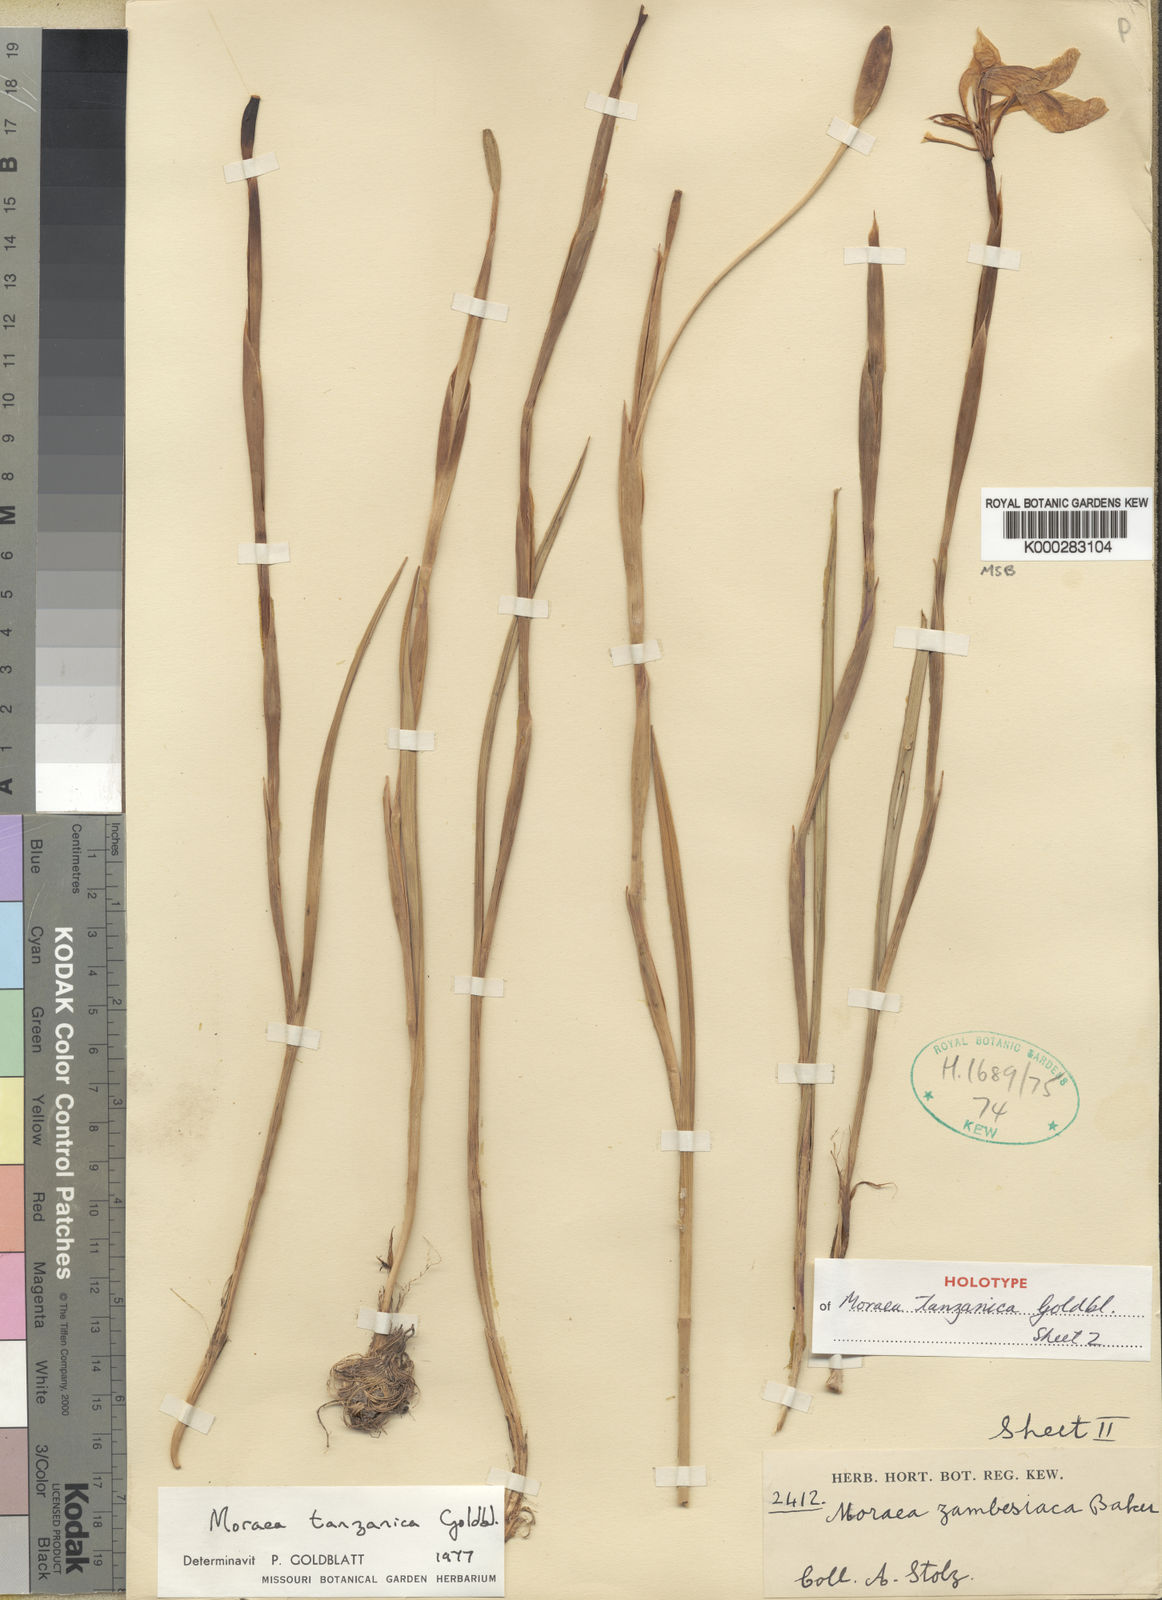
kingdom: Plantae
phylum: Tracheophyta
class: Liliopsida
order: Asparagales
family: Iridaceae
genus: Moraea
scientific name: Moraea tanzanica
